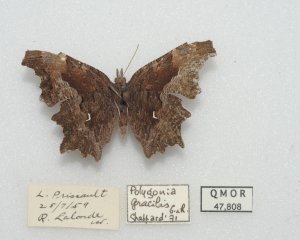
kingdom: Animalia
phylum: Arthropoda
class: Insecta
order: Lepidoptera
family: Nymphalidae
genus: Polygonia
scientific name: Polygonia gracilis
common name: Hoary Comma
